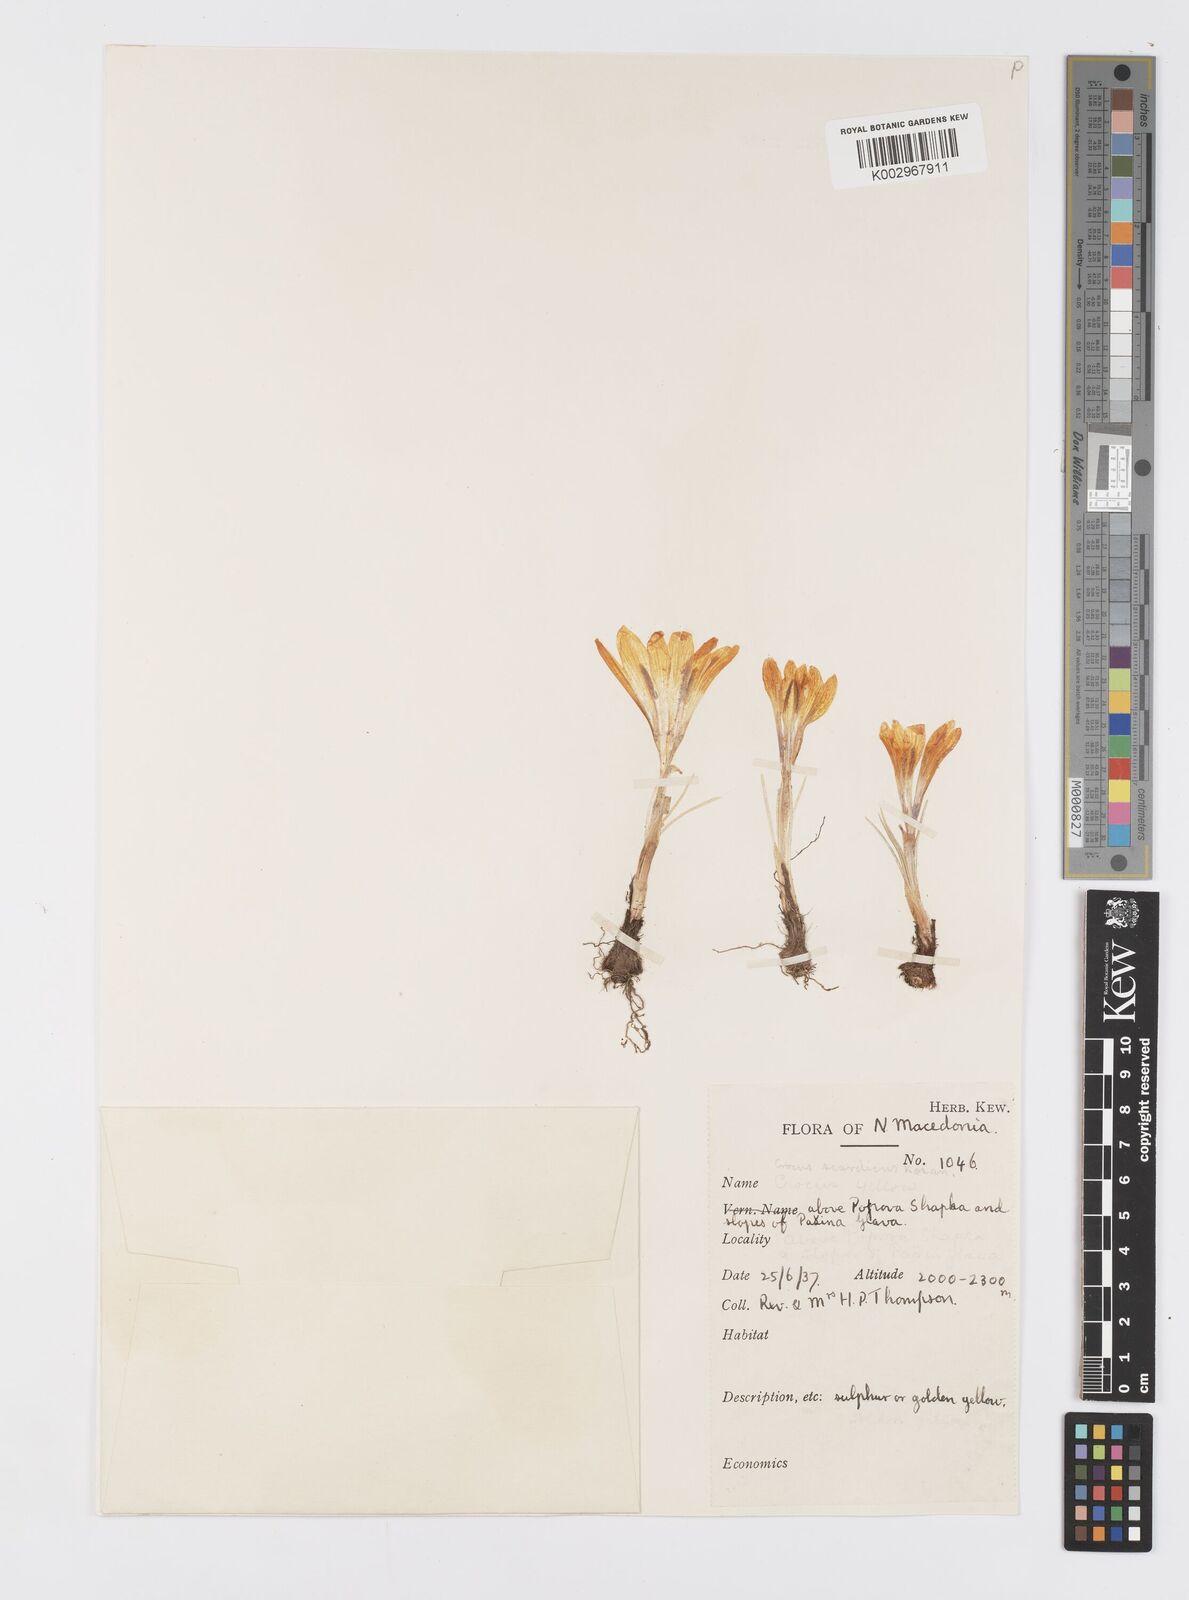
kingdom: Plantae
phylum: Tracheophyta
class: Liliopsida
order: Asparagales
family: Iridaceae
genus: Crocus
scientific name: Crocus scardicus
